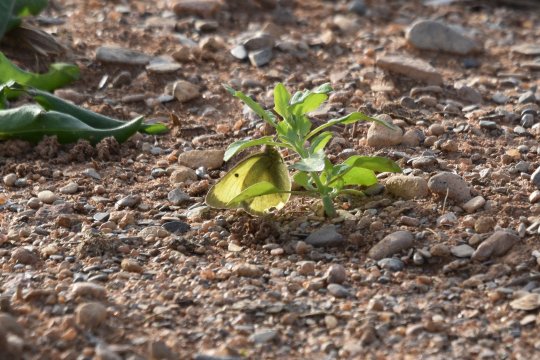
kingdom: Animalia
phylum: Arthropoda
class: Insecta
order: Lepidoptera
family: Pieridae
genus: Colias
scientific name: Colias philodice
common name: Clouded Sulphur
